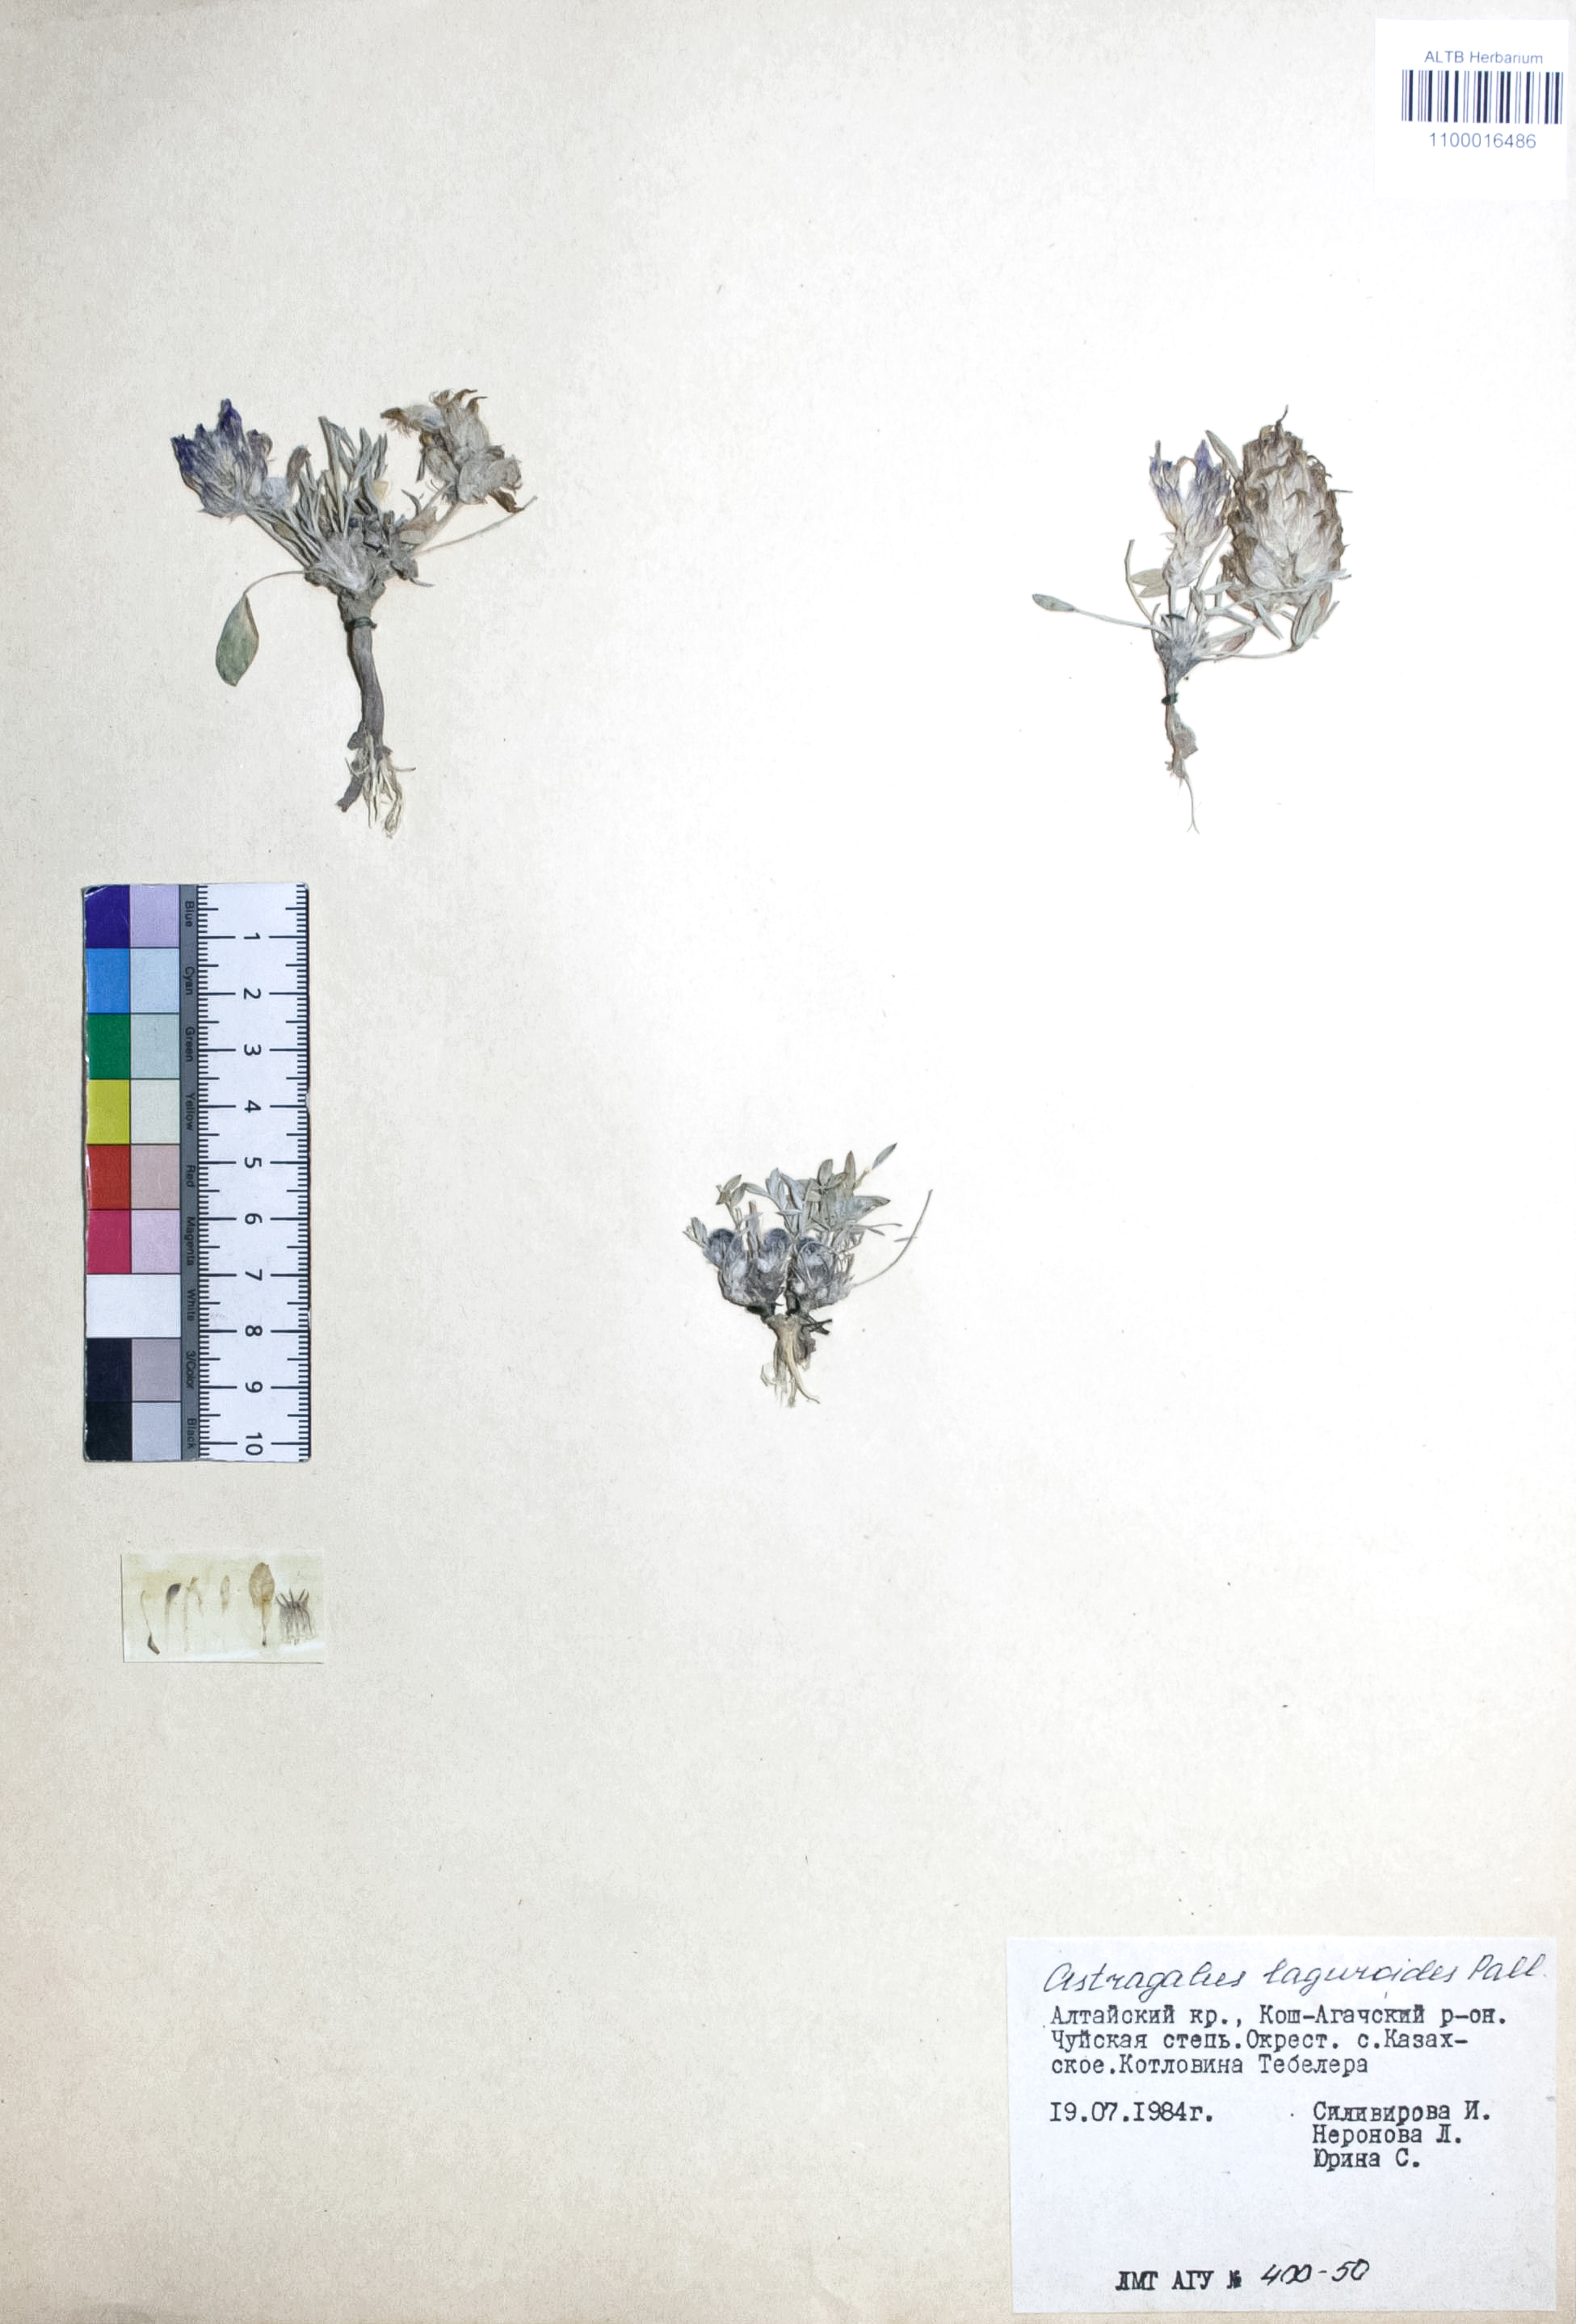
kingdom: Plantae
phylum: Tracheophyta
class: Magnoliopsida
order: Fabales
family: Fabaceae
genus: Astragalus
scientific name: Astragalus laguroides
